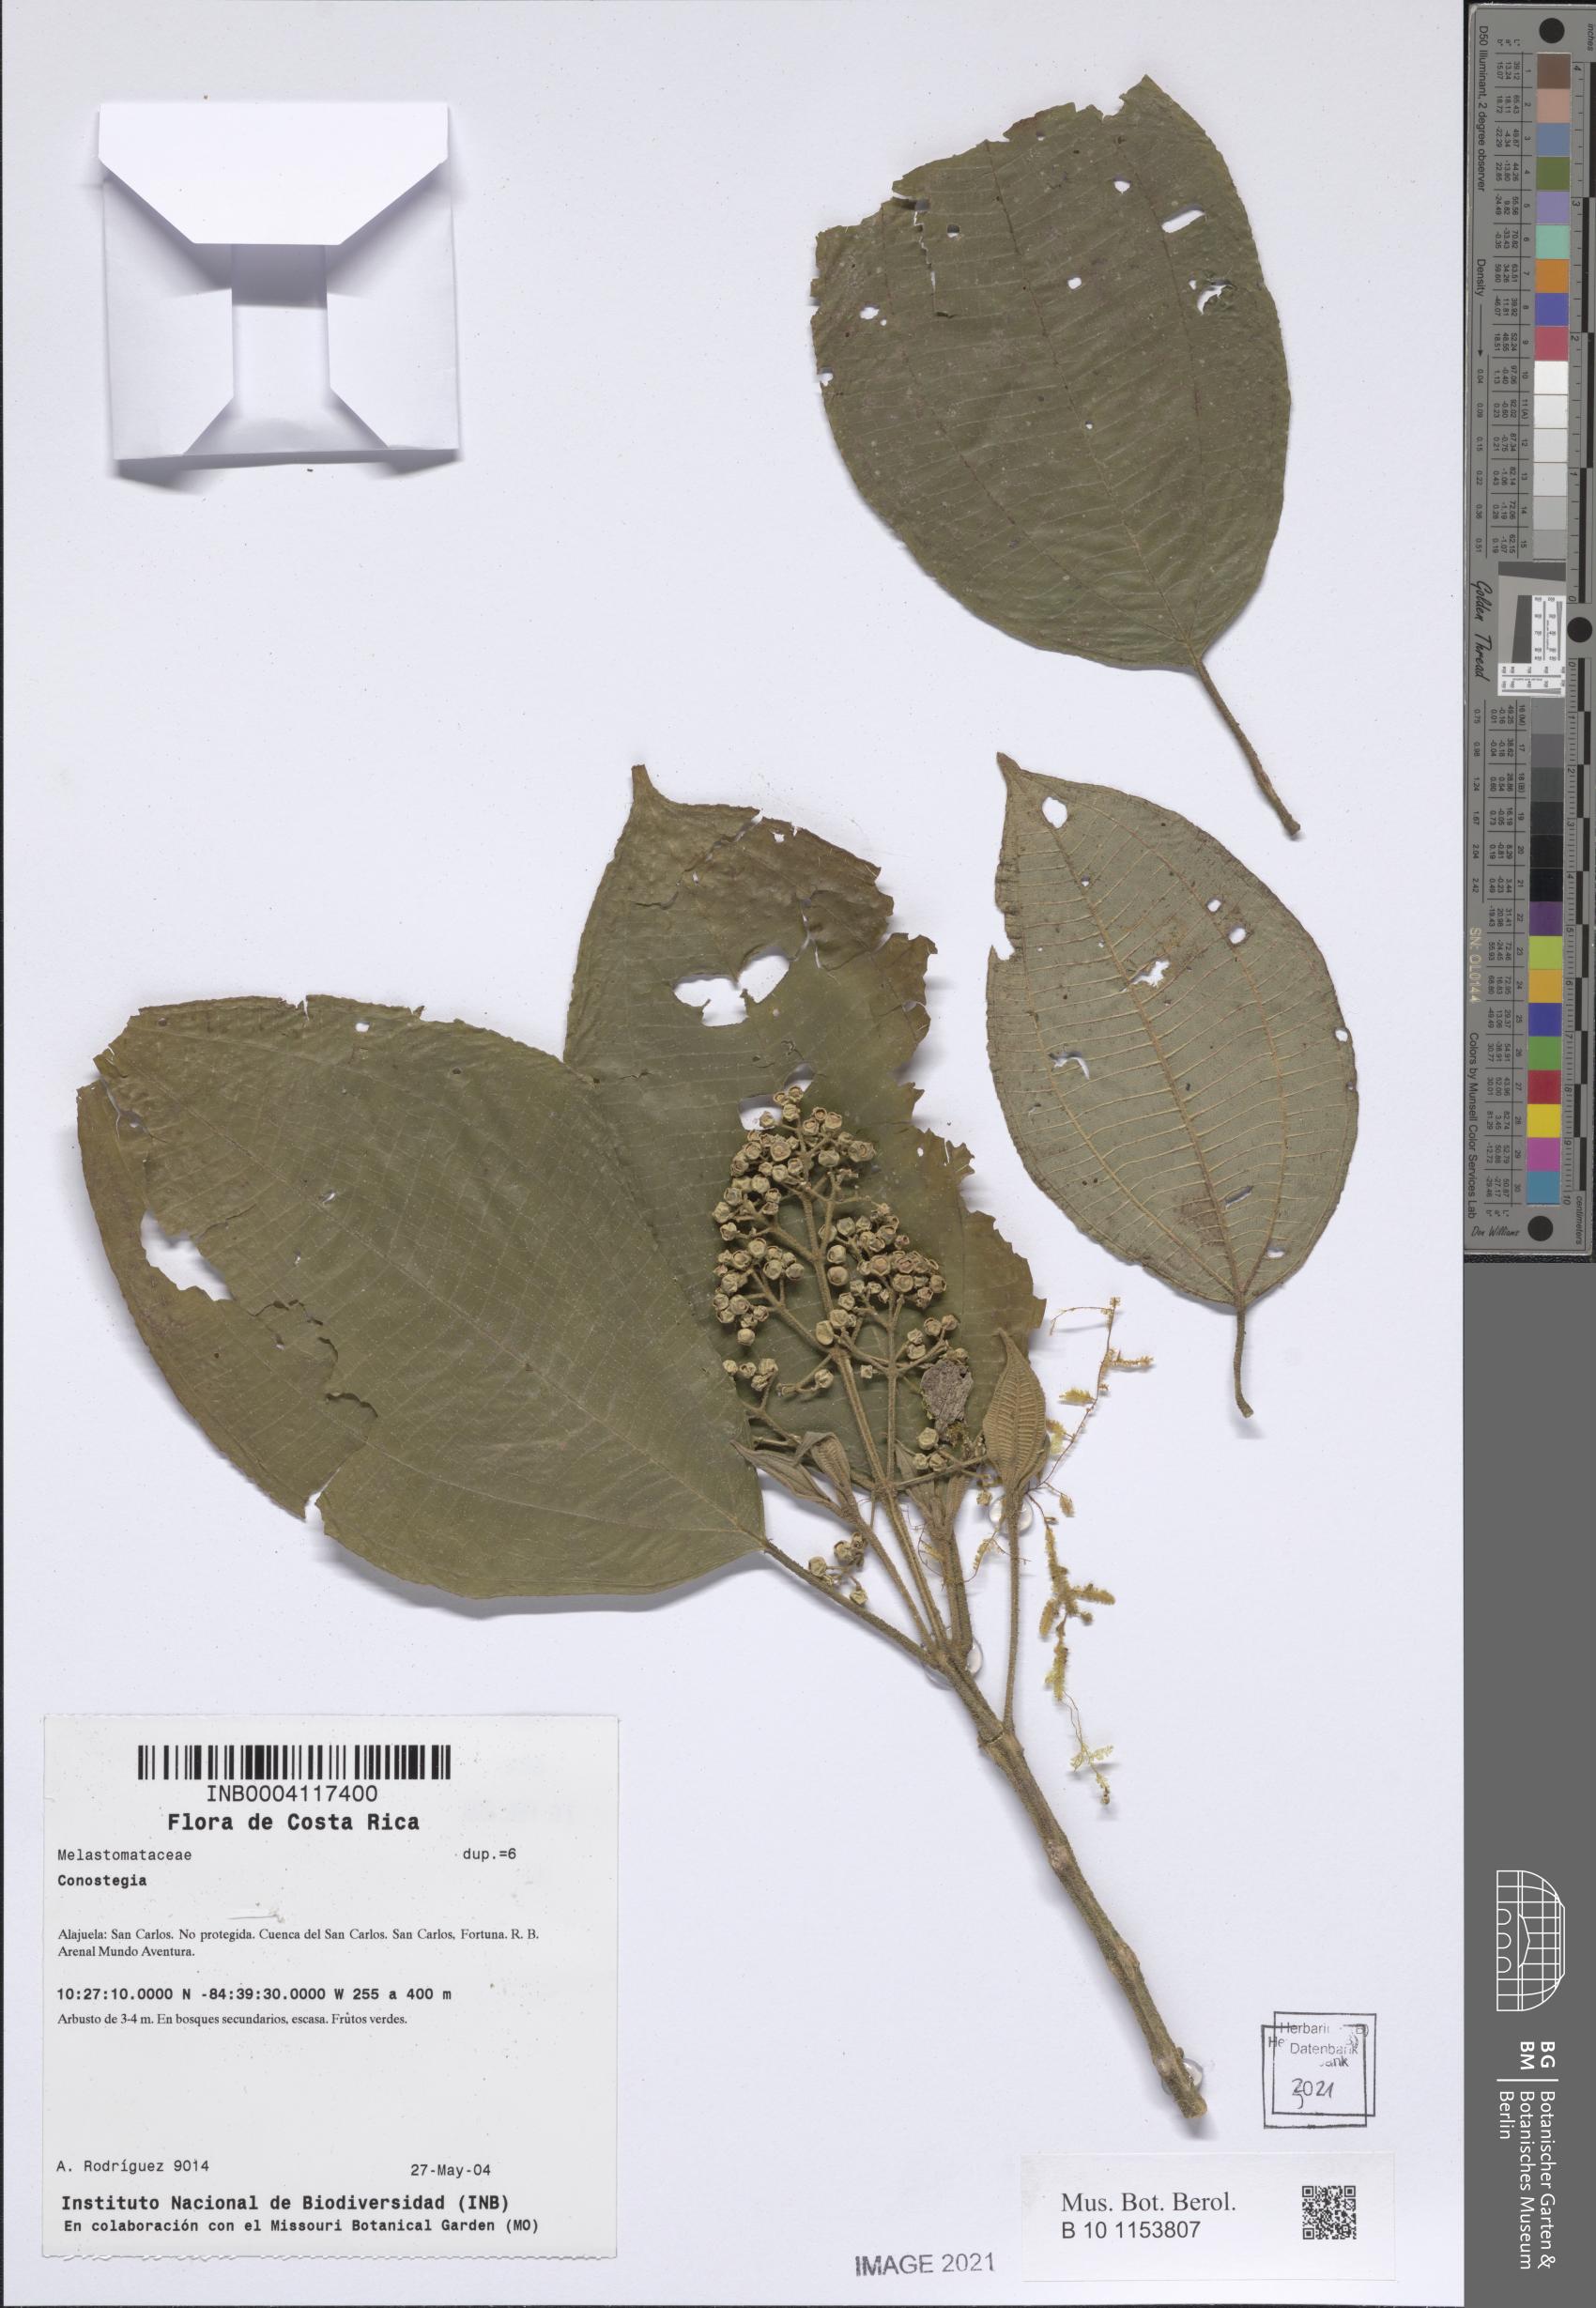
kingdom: Plantae
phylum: Tracheophyta
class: Magnoliopsida
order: Myrtales
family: Melastomataceae
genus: Miconia
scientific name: Miconia
